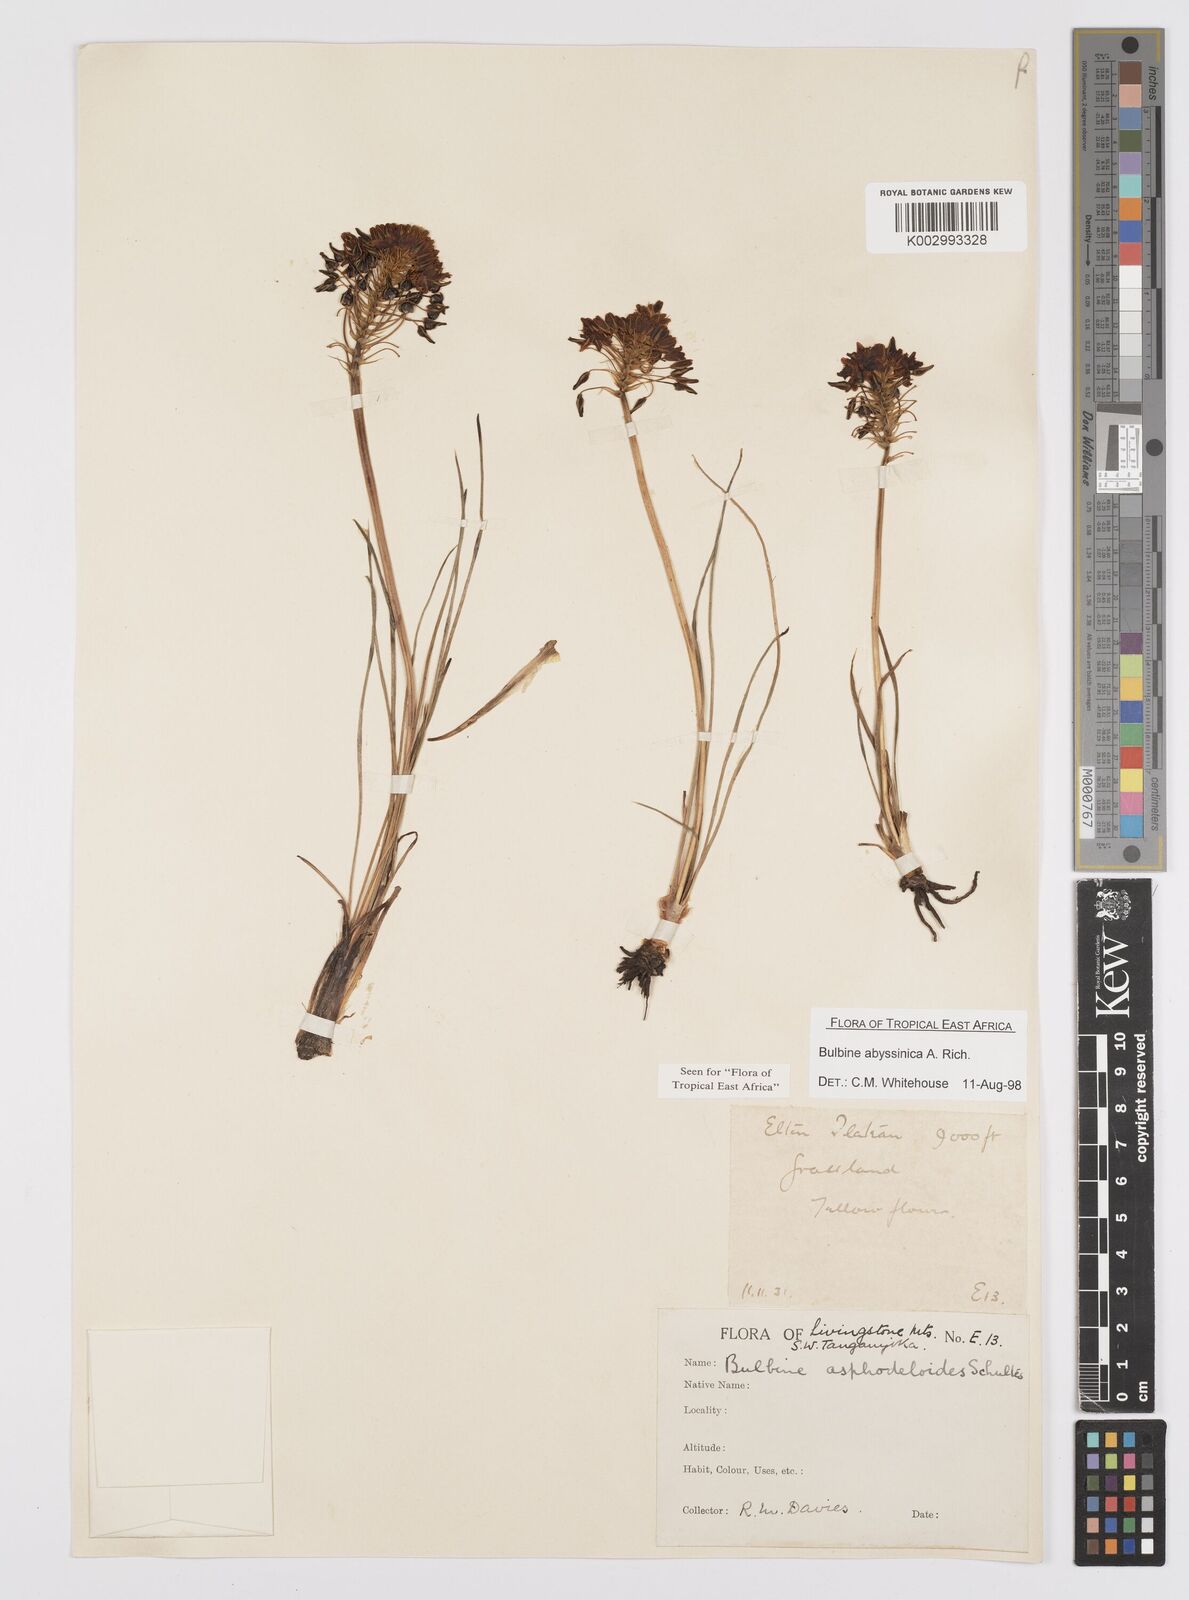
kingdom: Plantae
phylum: Tracheophyta
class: Liliopsida
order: Asparagales
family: Asphodelaceae
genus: Bulbine
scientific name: Bulbine abyssinica
